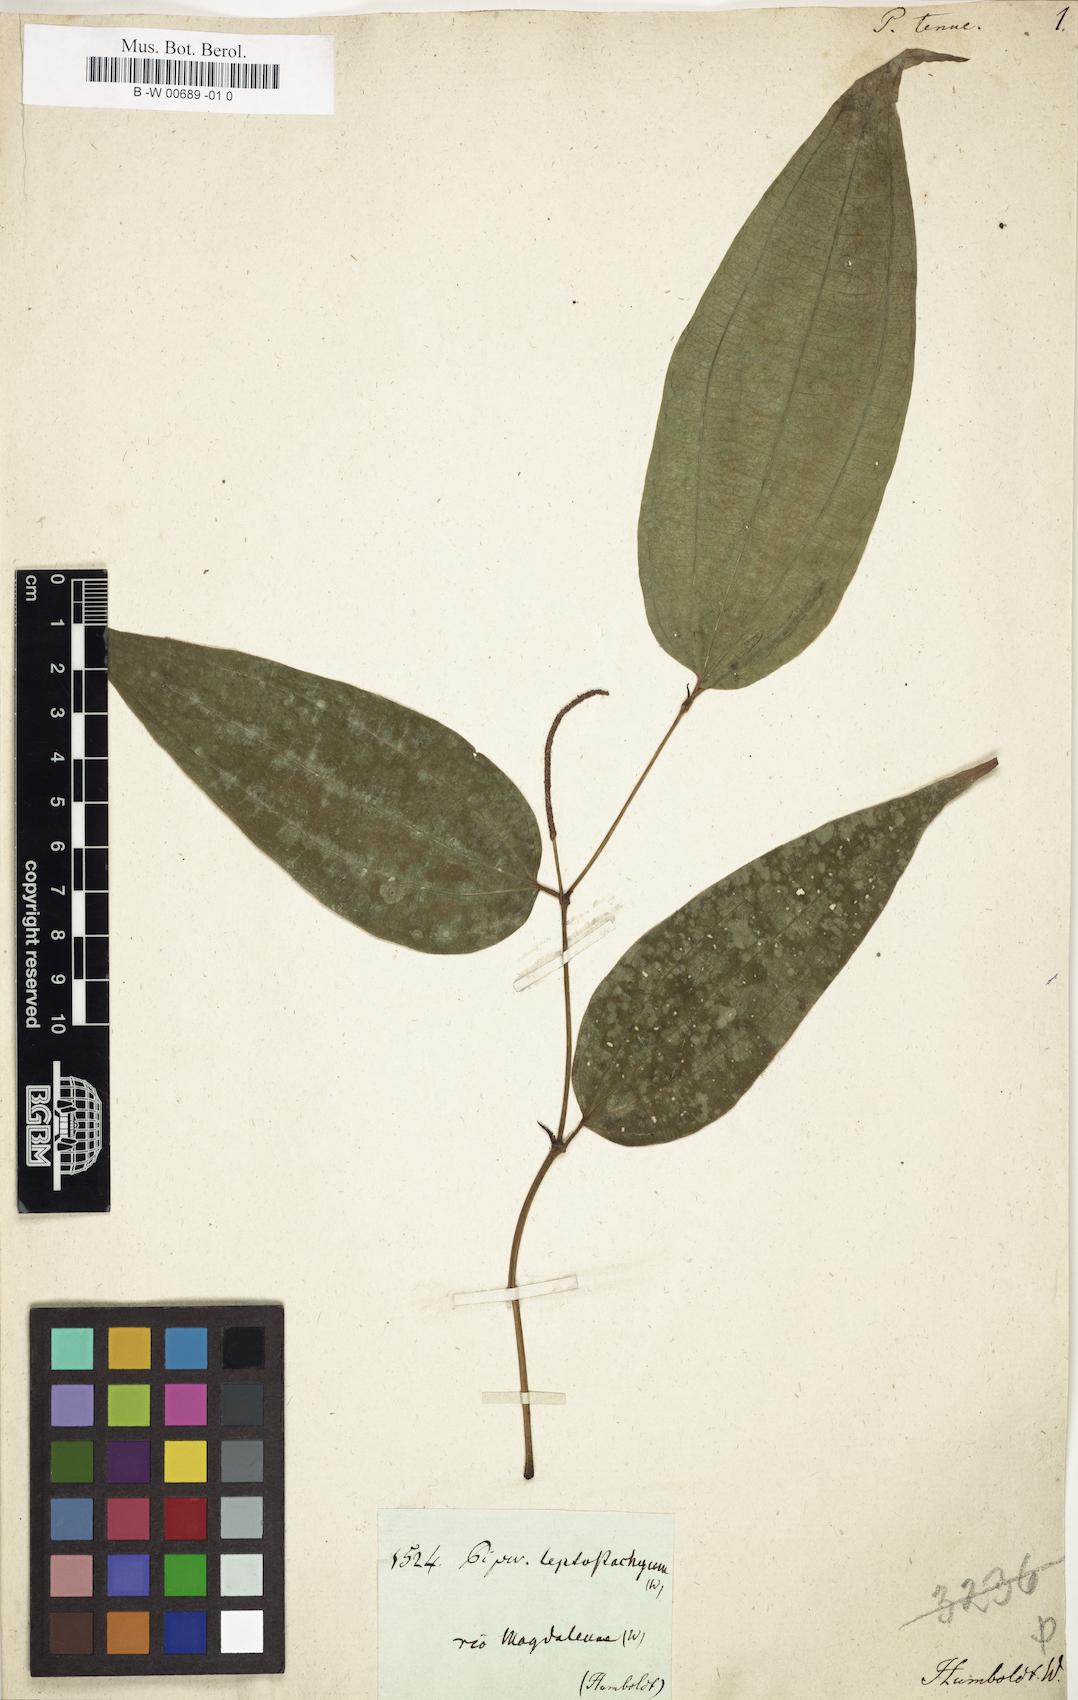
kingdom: Plantae
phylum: Tracheophyta
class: Magnoliopsida
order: Piperales
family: Piperaceae
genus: Piper
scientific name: Piper tenue
